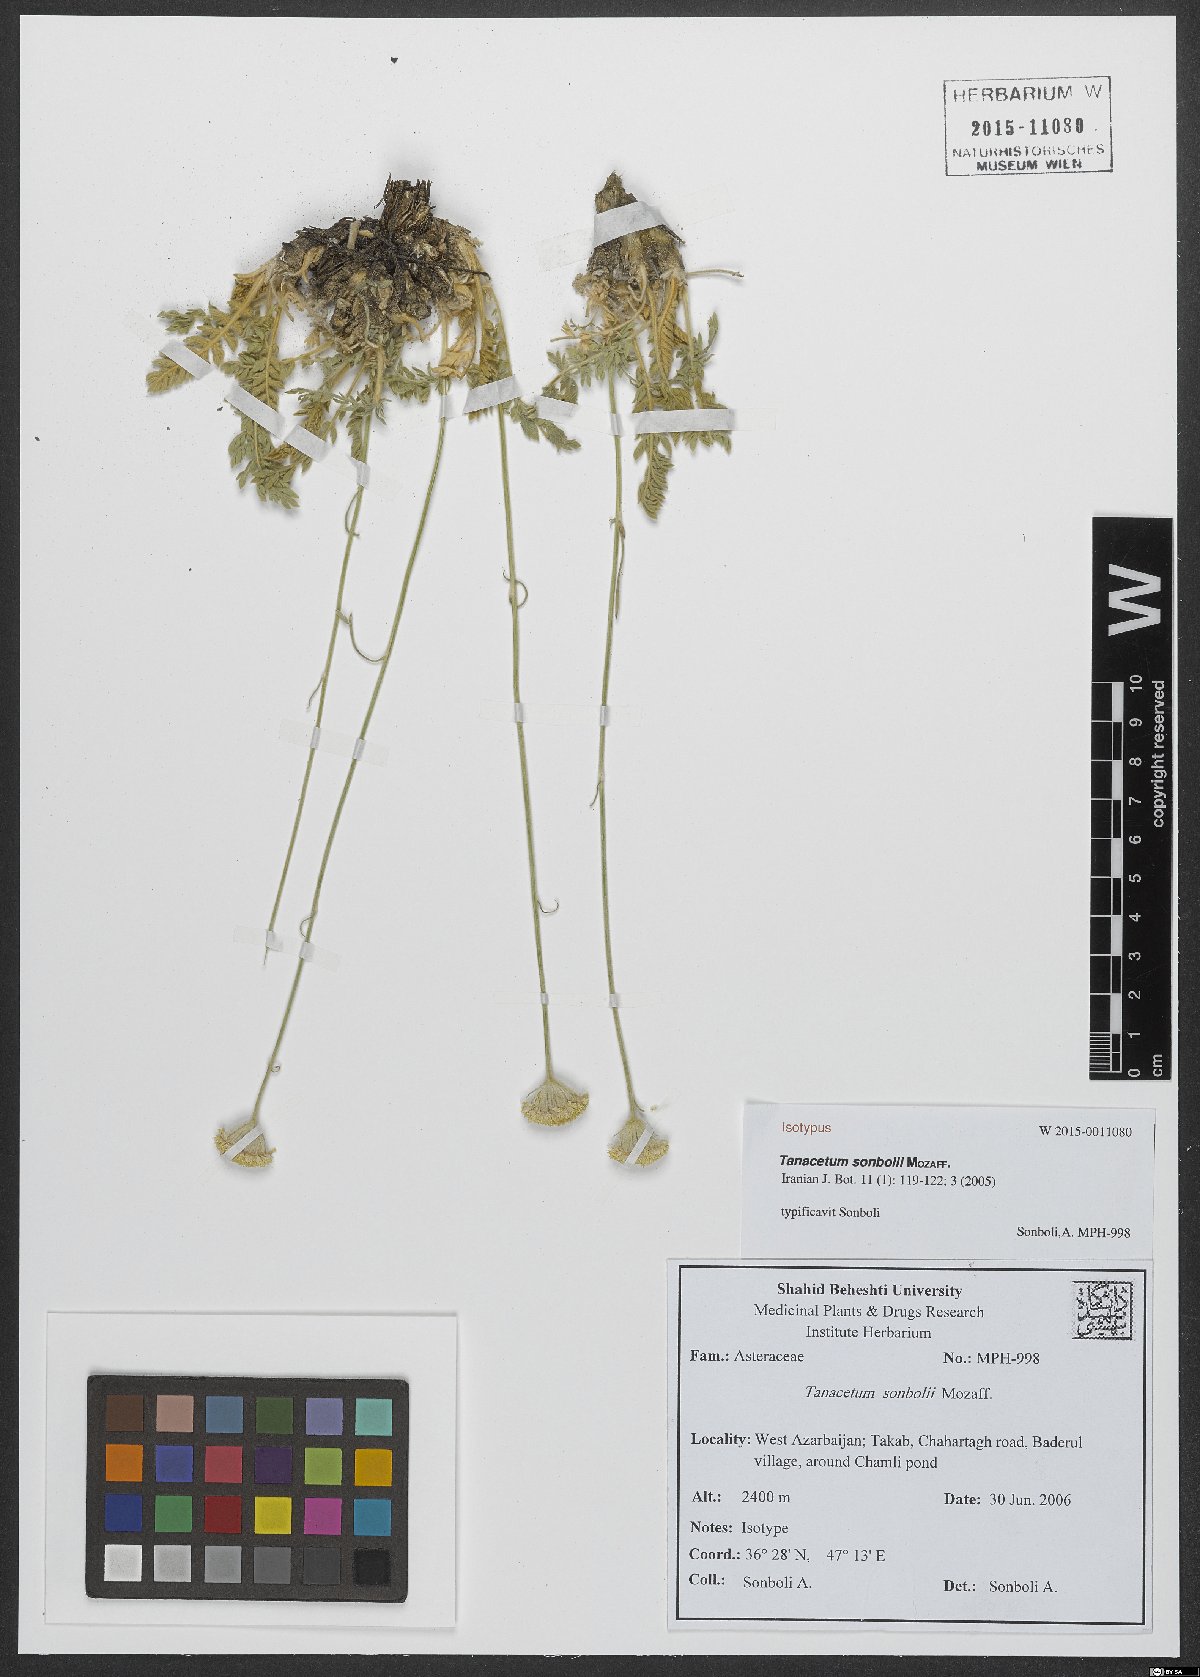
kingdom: Plantae
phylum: Tracheophyta
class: Magnoliopsida
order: Asterales
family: Asteraceae
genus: Tanacetum
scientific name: Tanacetum sonbolii
